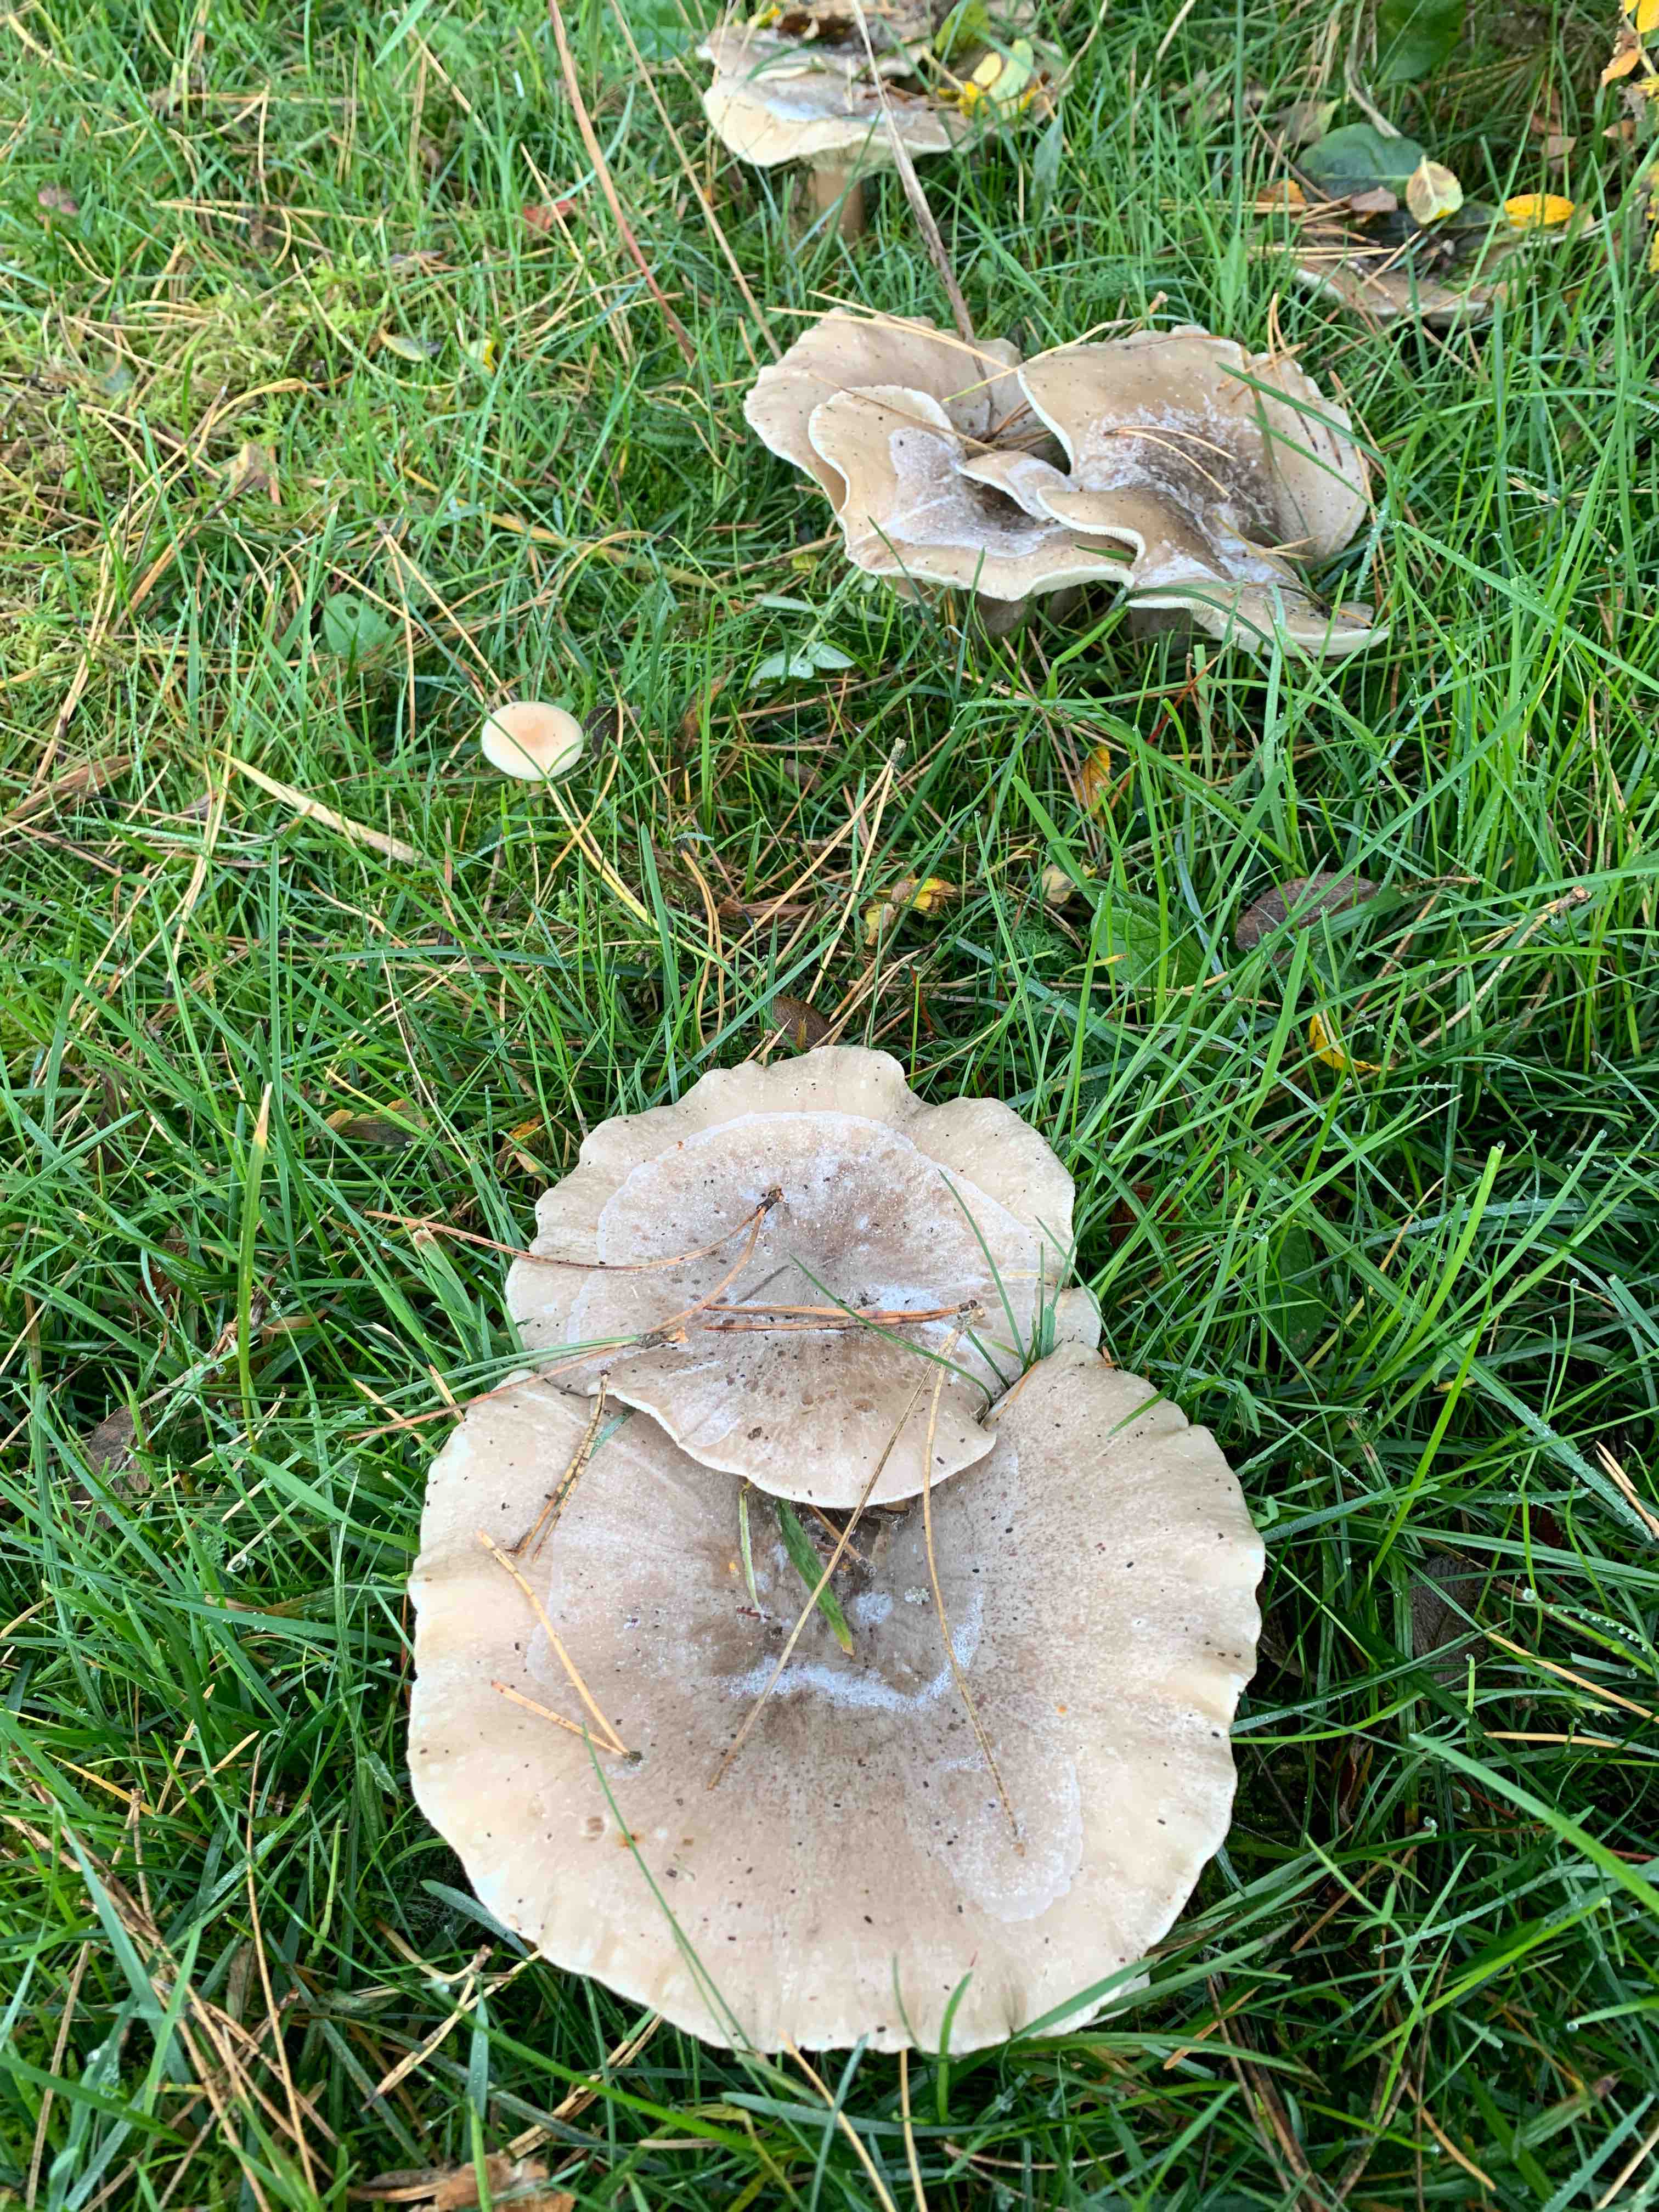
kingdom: Fungi
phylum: Basidiomycota
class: Agaricomycetes
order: Agaricales
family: Tricholomataceae
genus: Clitocybe
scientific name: Clitocybe nebularis
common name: tåge-tragthat
